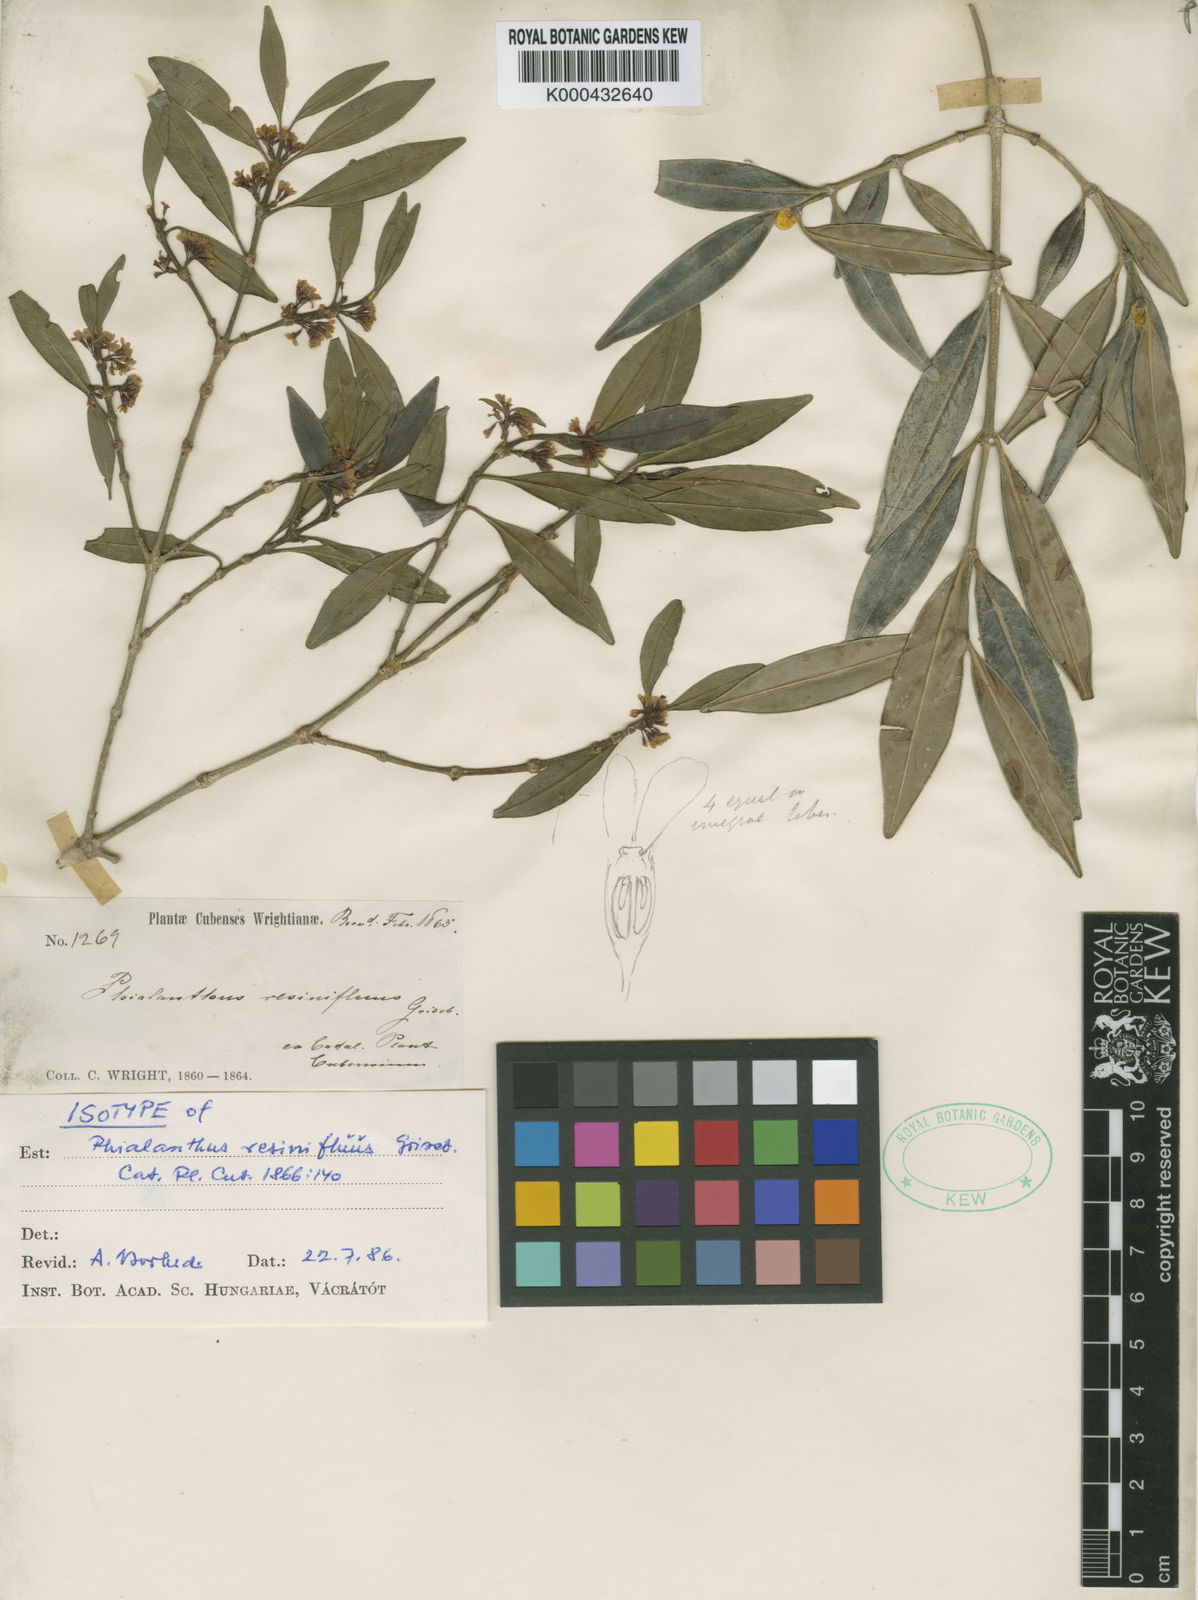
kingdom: Plantae
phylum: Tracheophyta
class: Magnoliopsida
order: Gentianales
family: Rubiaceae
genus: Phialanthus
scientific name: Phialanthus resinifluus
